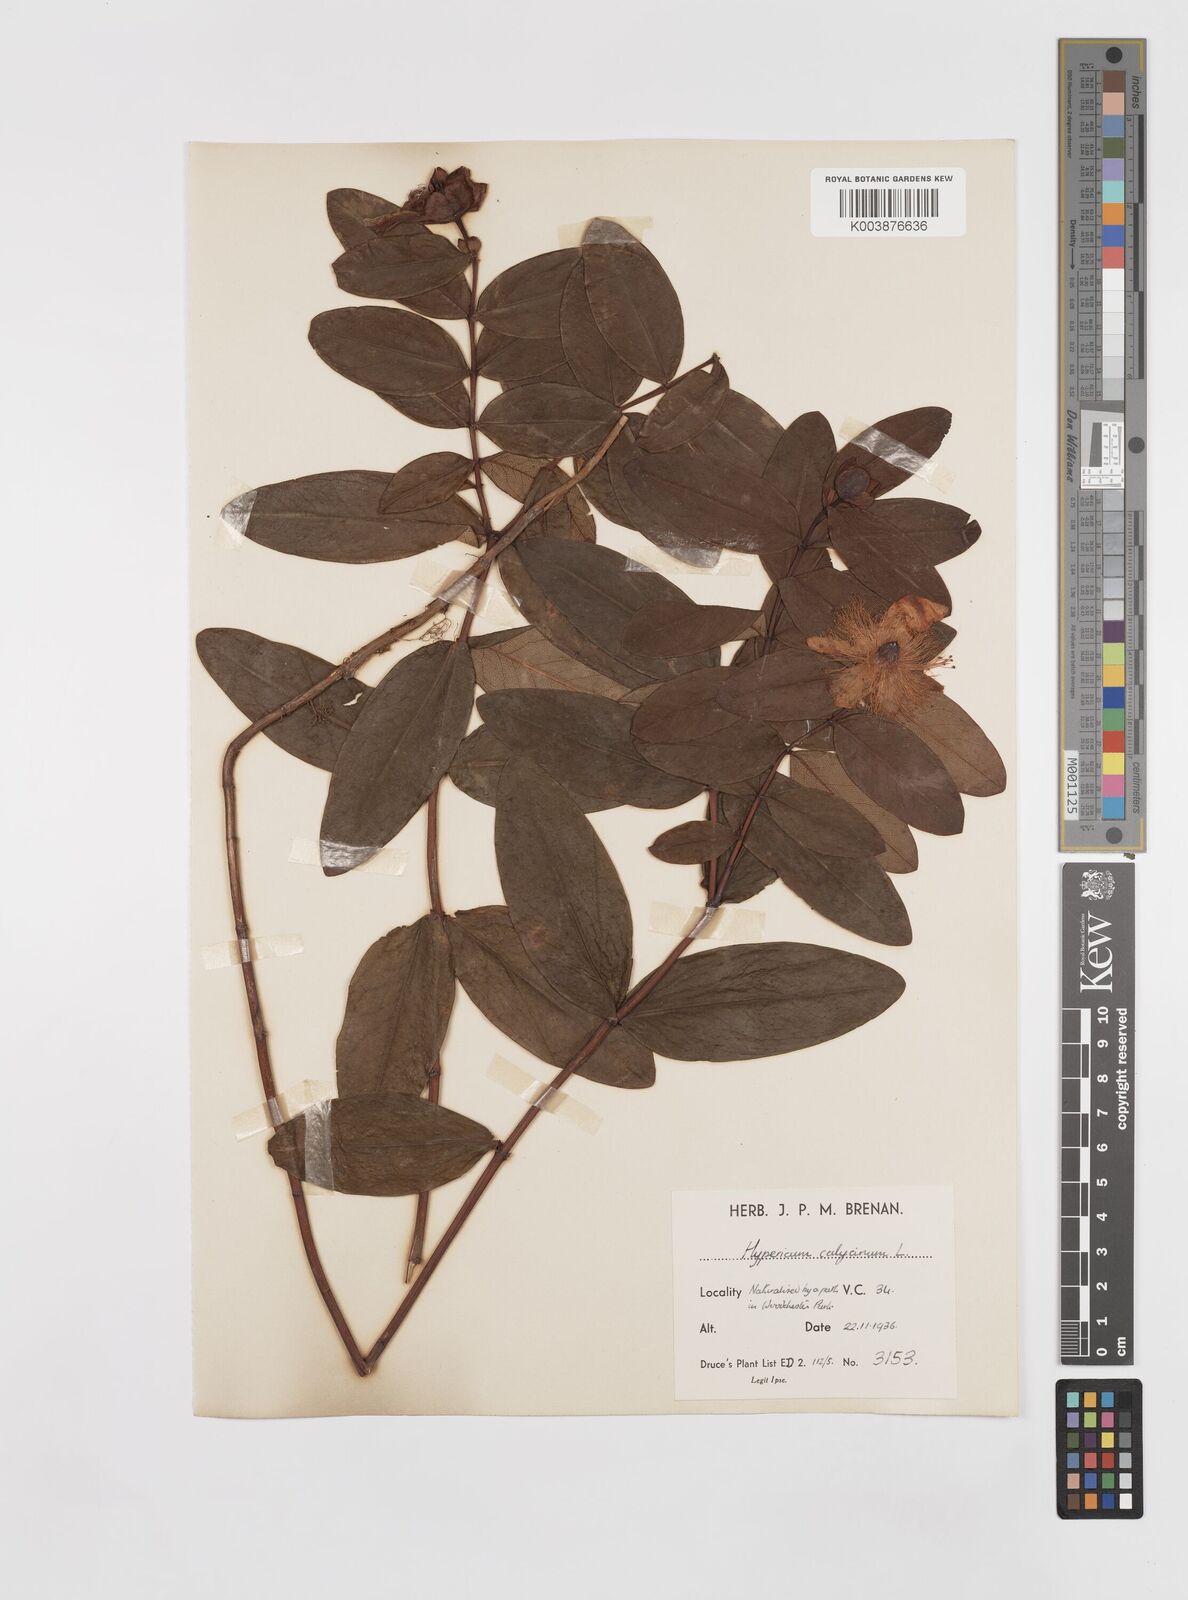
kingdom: Plantae
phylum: Tracheophyta
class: Magnoliopsida
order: Malpighiales
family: Hypericaceae
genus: Hypericum
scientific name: Hypericum calycinum
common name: Rose-of-sharon
